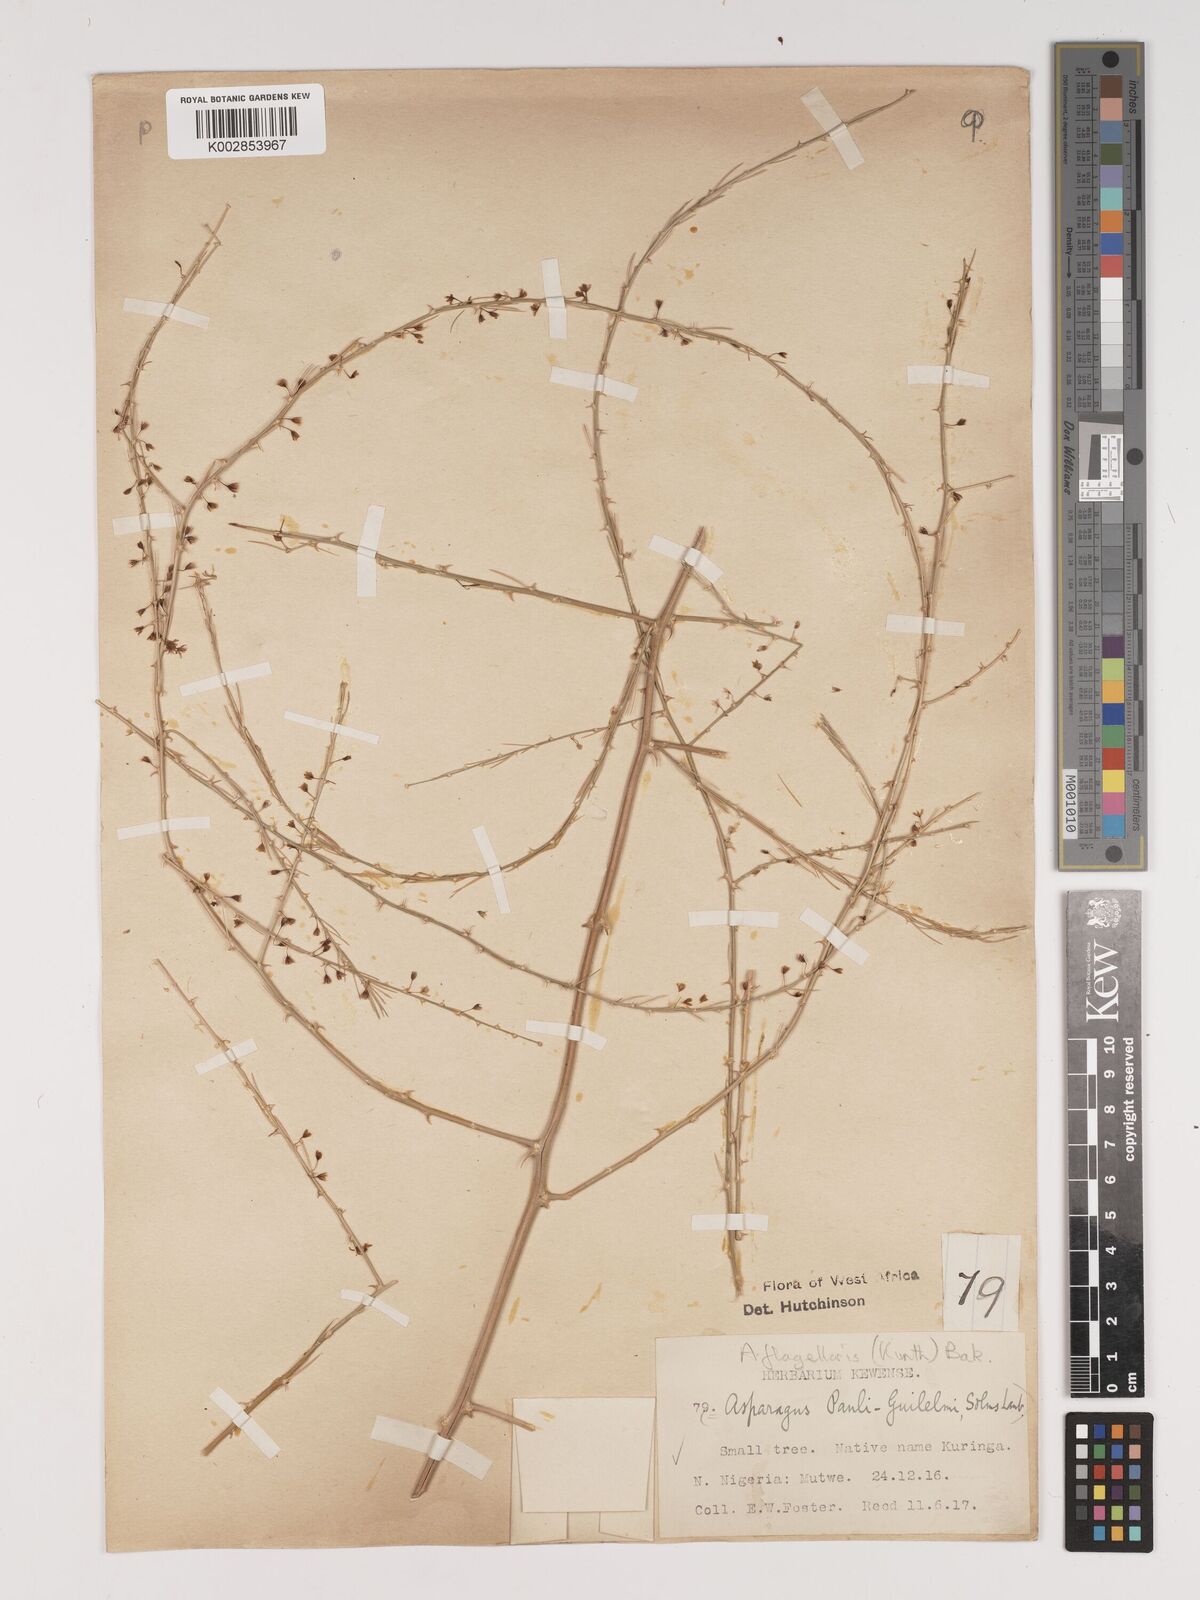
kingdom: Plantae
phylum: Tracheophyta
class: Liliopsida
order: Asparagales
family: Asparagaceae
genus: Asparagus
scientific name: Asparagus flagellaris
